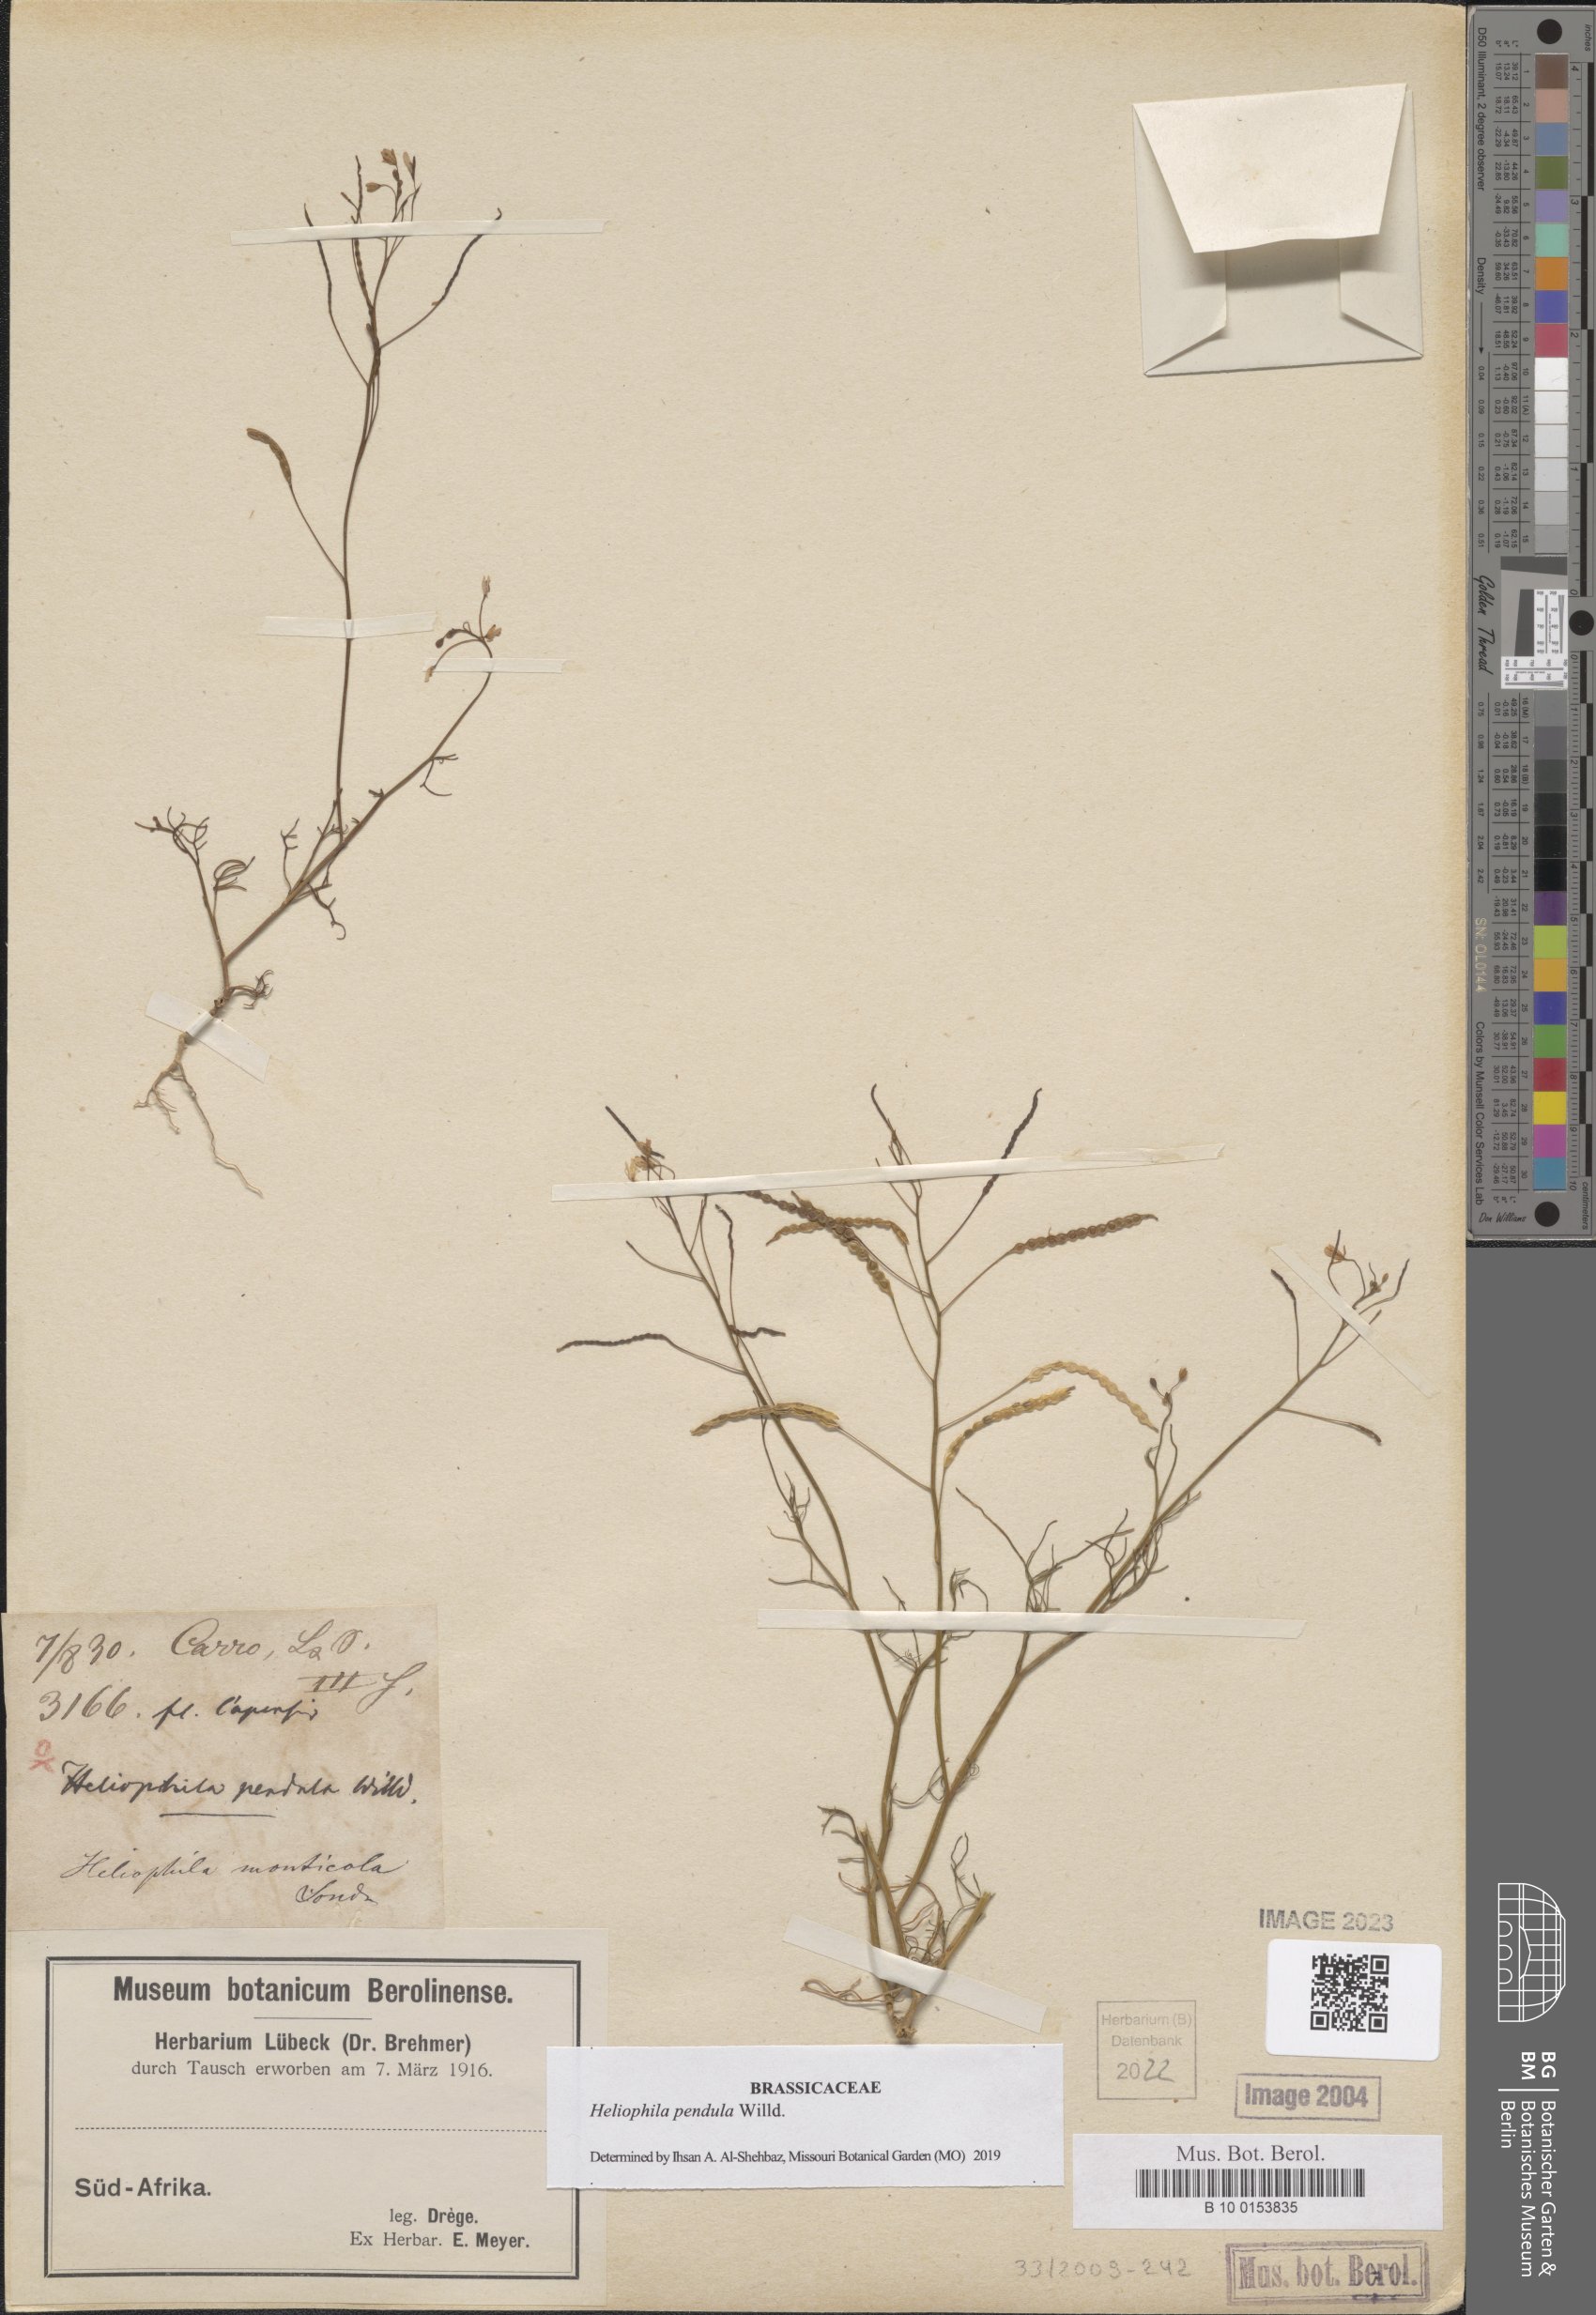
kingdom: Plantae
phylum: Tracheophyta
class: Magnoliopsida
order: Brassicales
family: Brassicaceae
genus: Heliophila
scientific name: Heliophila pendula
